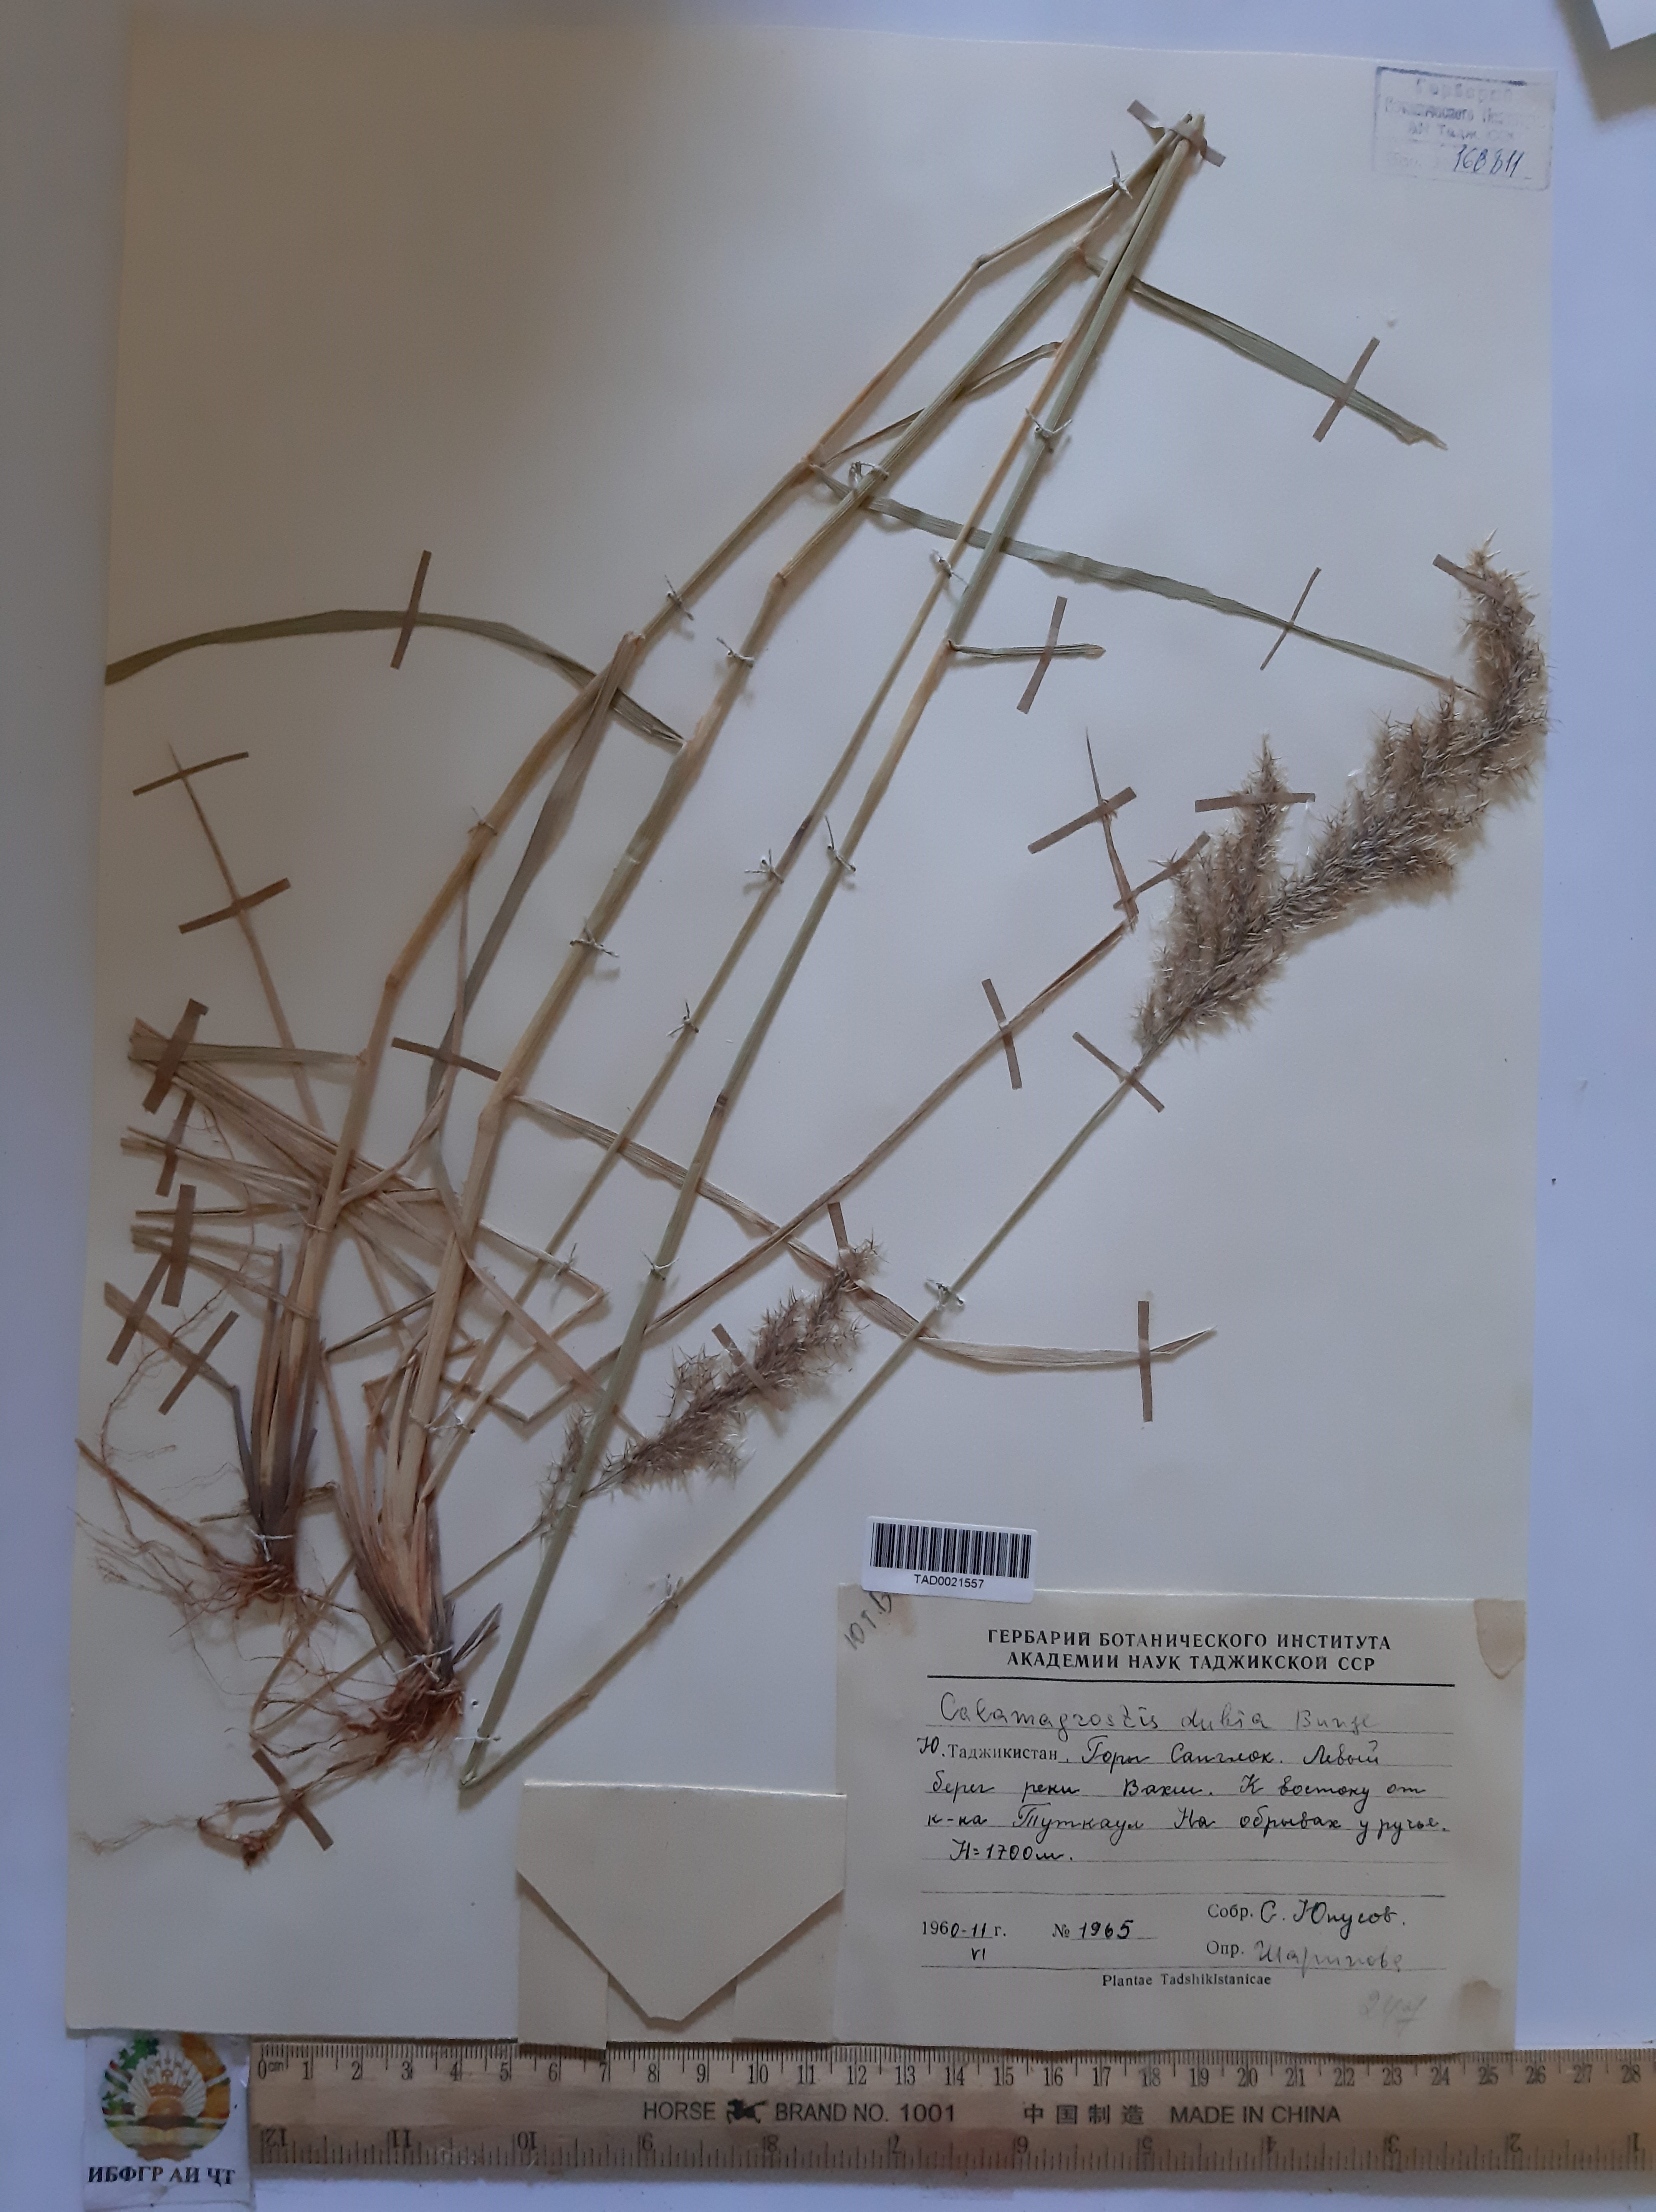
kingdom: Plantae
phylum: Tracheophyta
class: Liliopsida
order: Poales
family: Poaceae
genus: Calamagrostis
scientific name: Calamagrostis pseudophragmites
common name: Coastal small-reed
